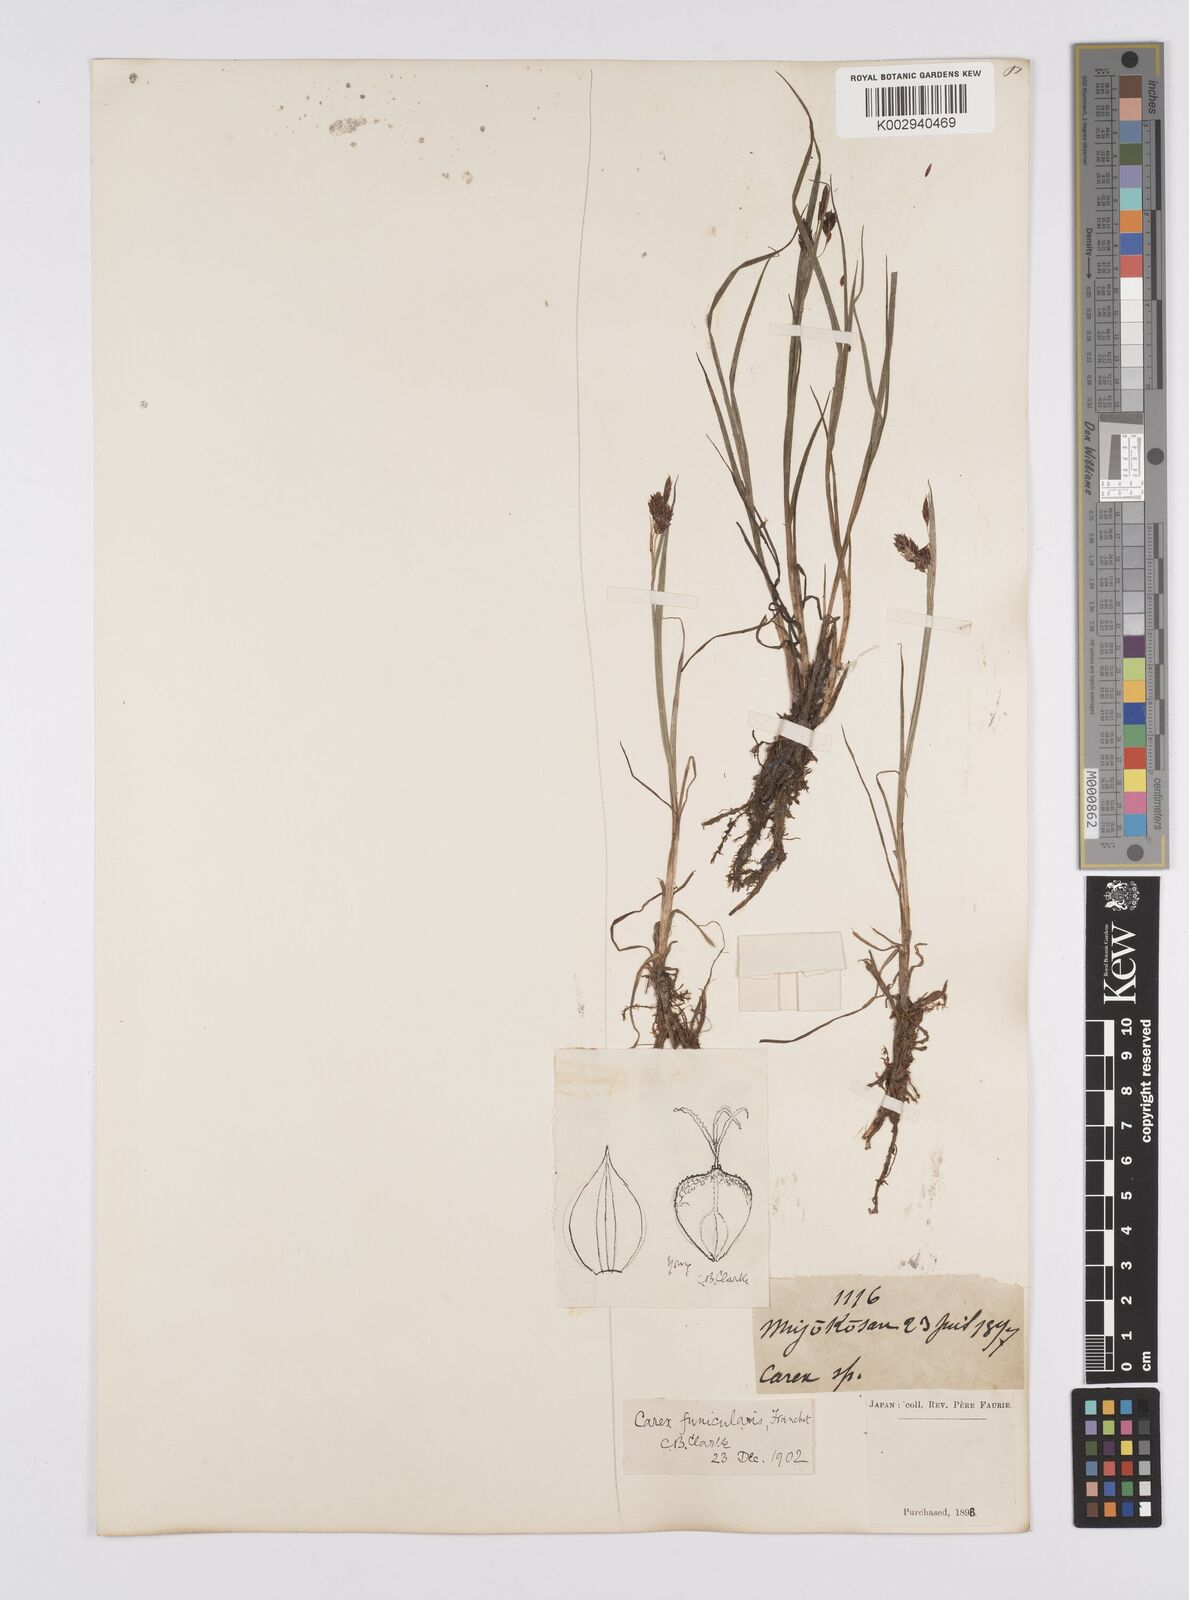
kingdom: Plantae
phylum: Tracheophyta
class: Liliopsida
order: Poales
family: Cyperaceae
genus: Carex
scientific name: Carex meyeriana
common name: Wula sedge
